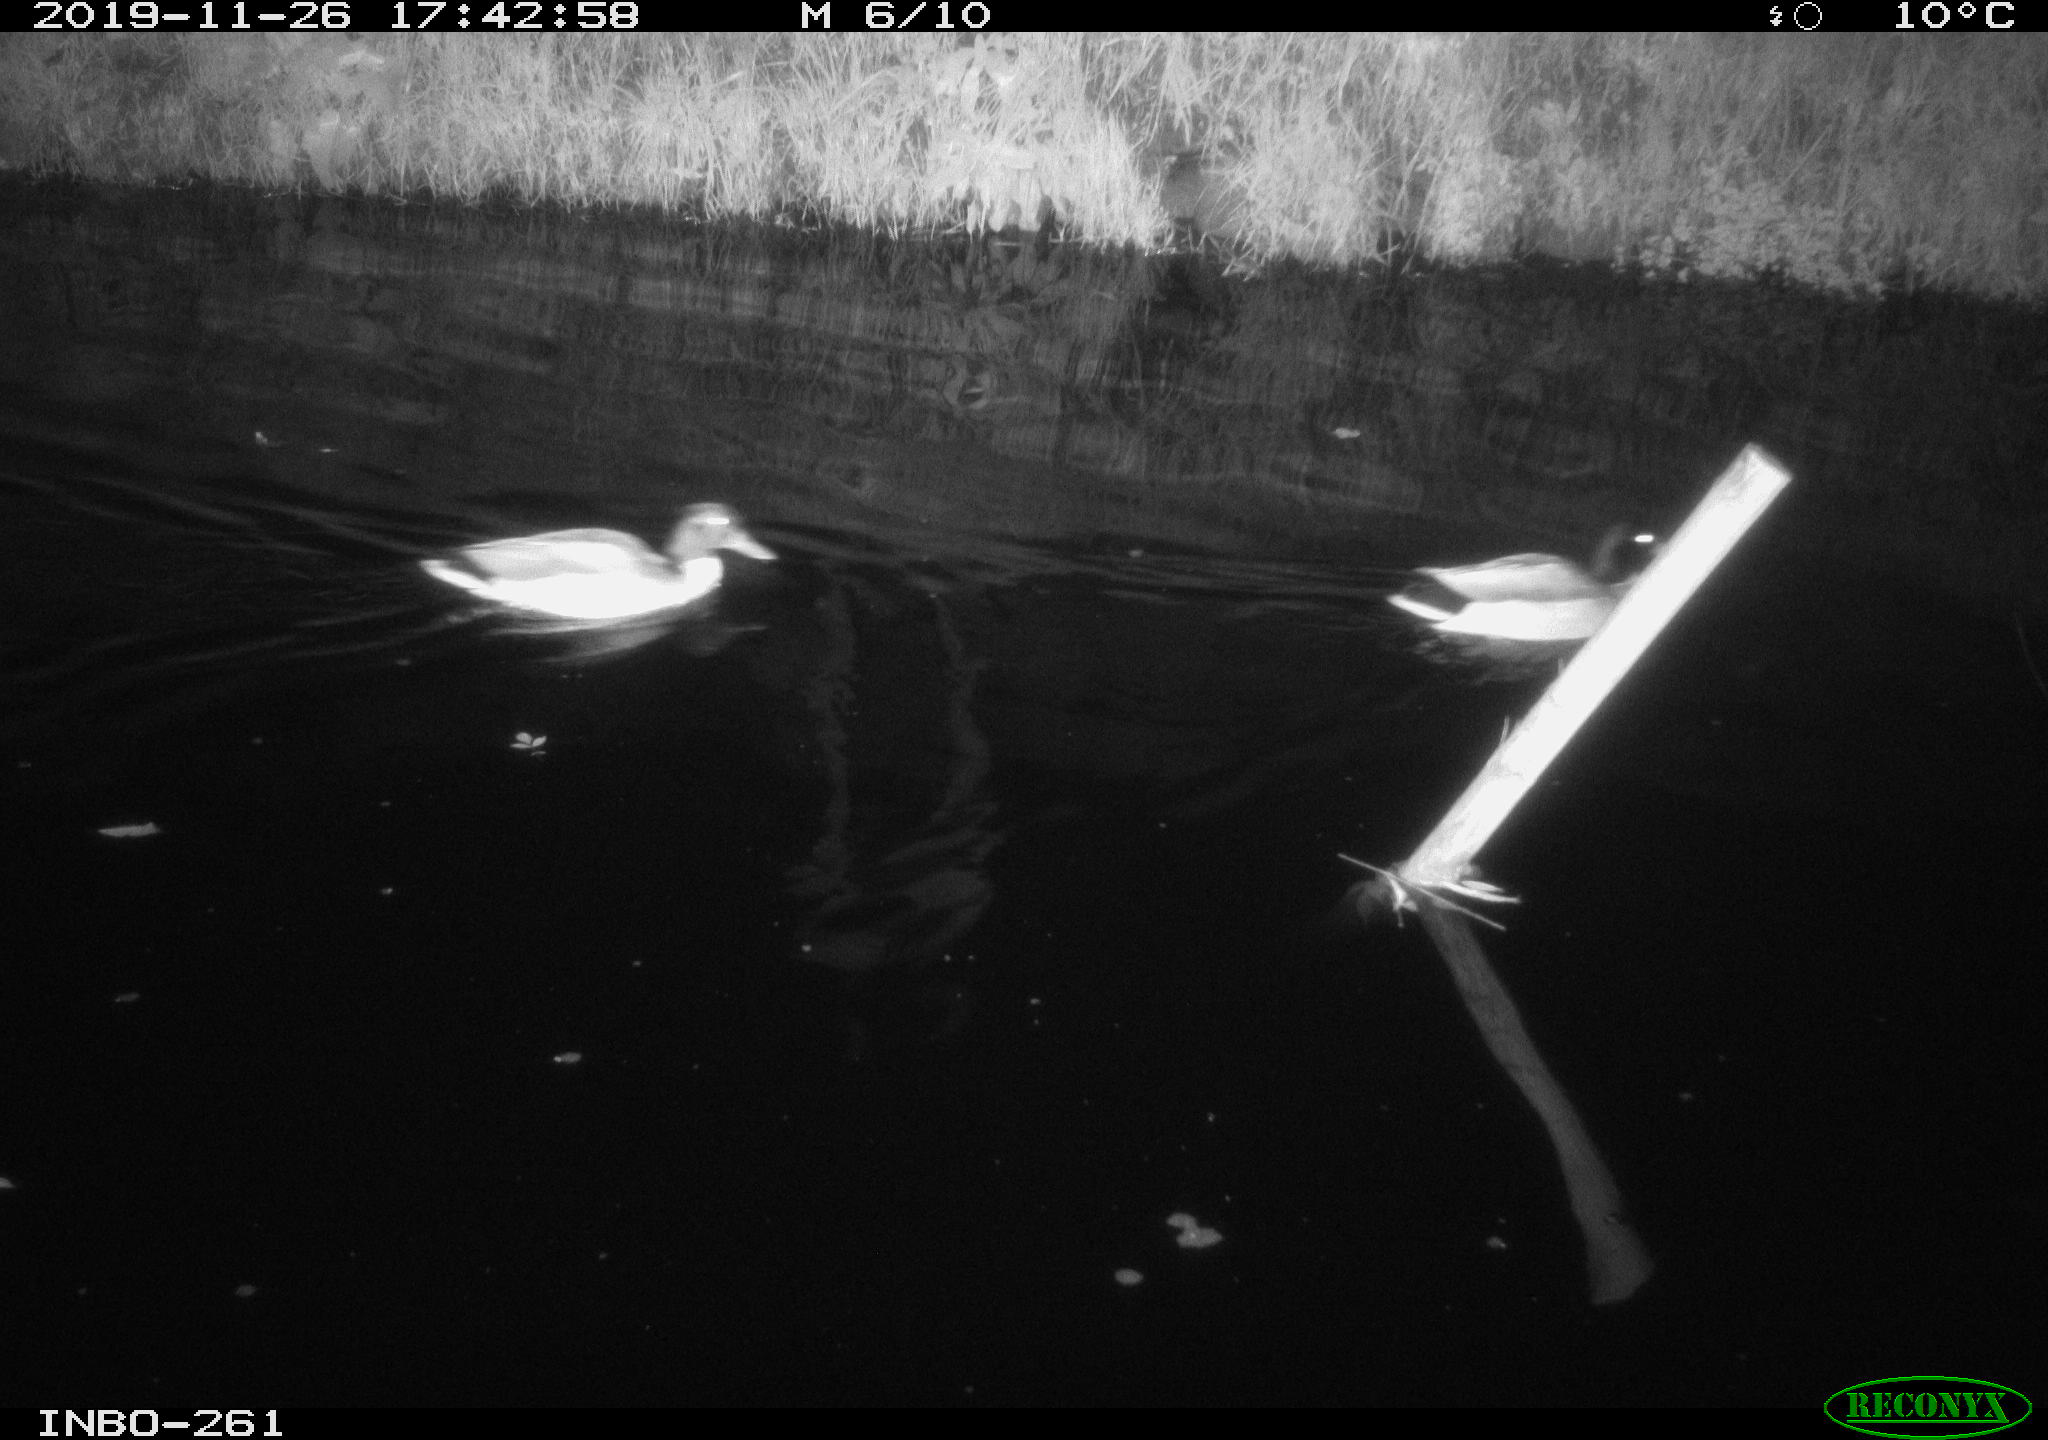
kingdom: Animalia
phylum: Chordata
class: Aves
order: Anseriformes
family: Anatidae
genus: Anas
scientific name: Anas platyrhynchos
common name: Mallard
